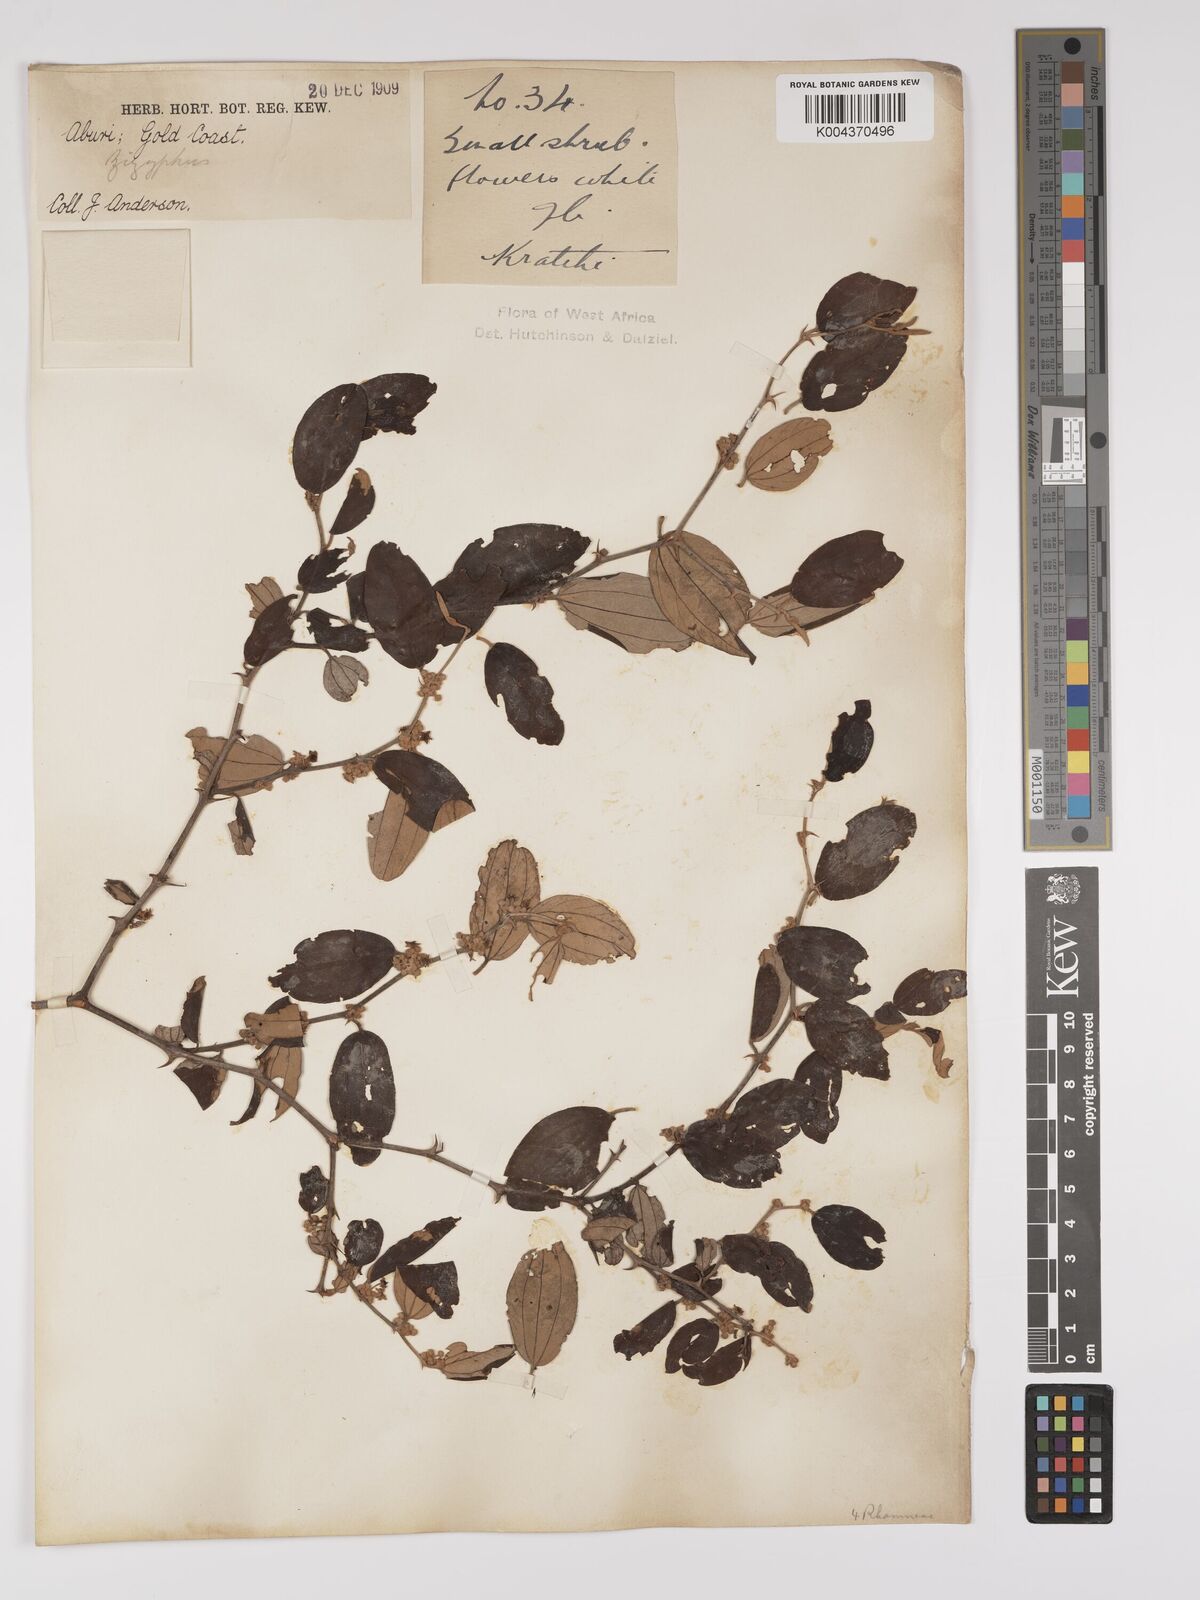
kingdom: Plantae
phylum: Tracheophyta
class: Magnoliopsida
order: Rosales
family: Rhamnaceae
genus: Ziziphus
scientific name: Ziziphus mauritiana
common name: Indian jujube
